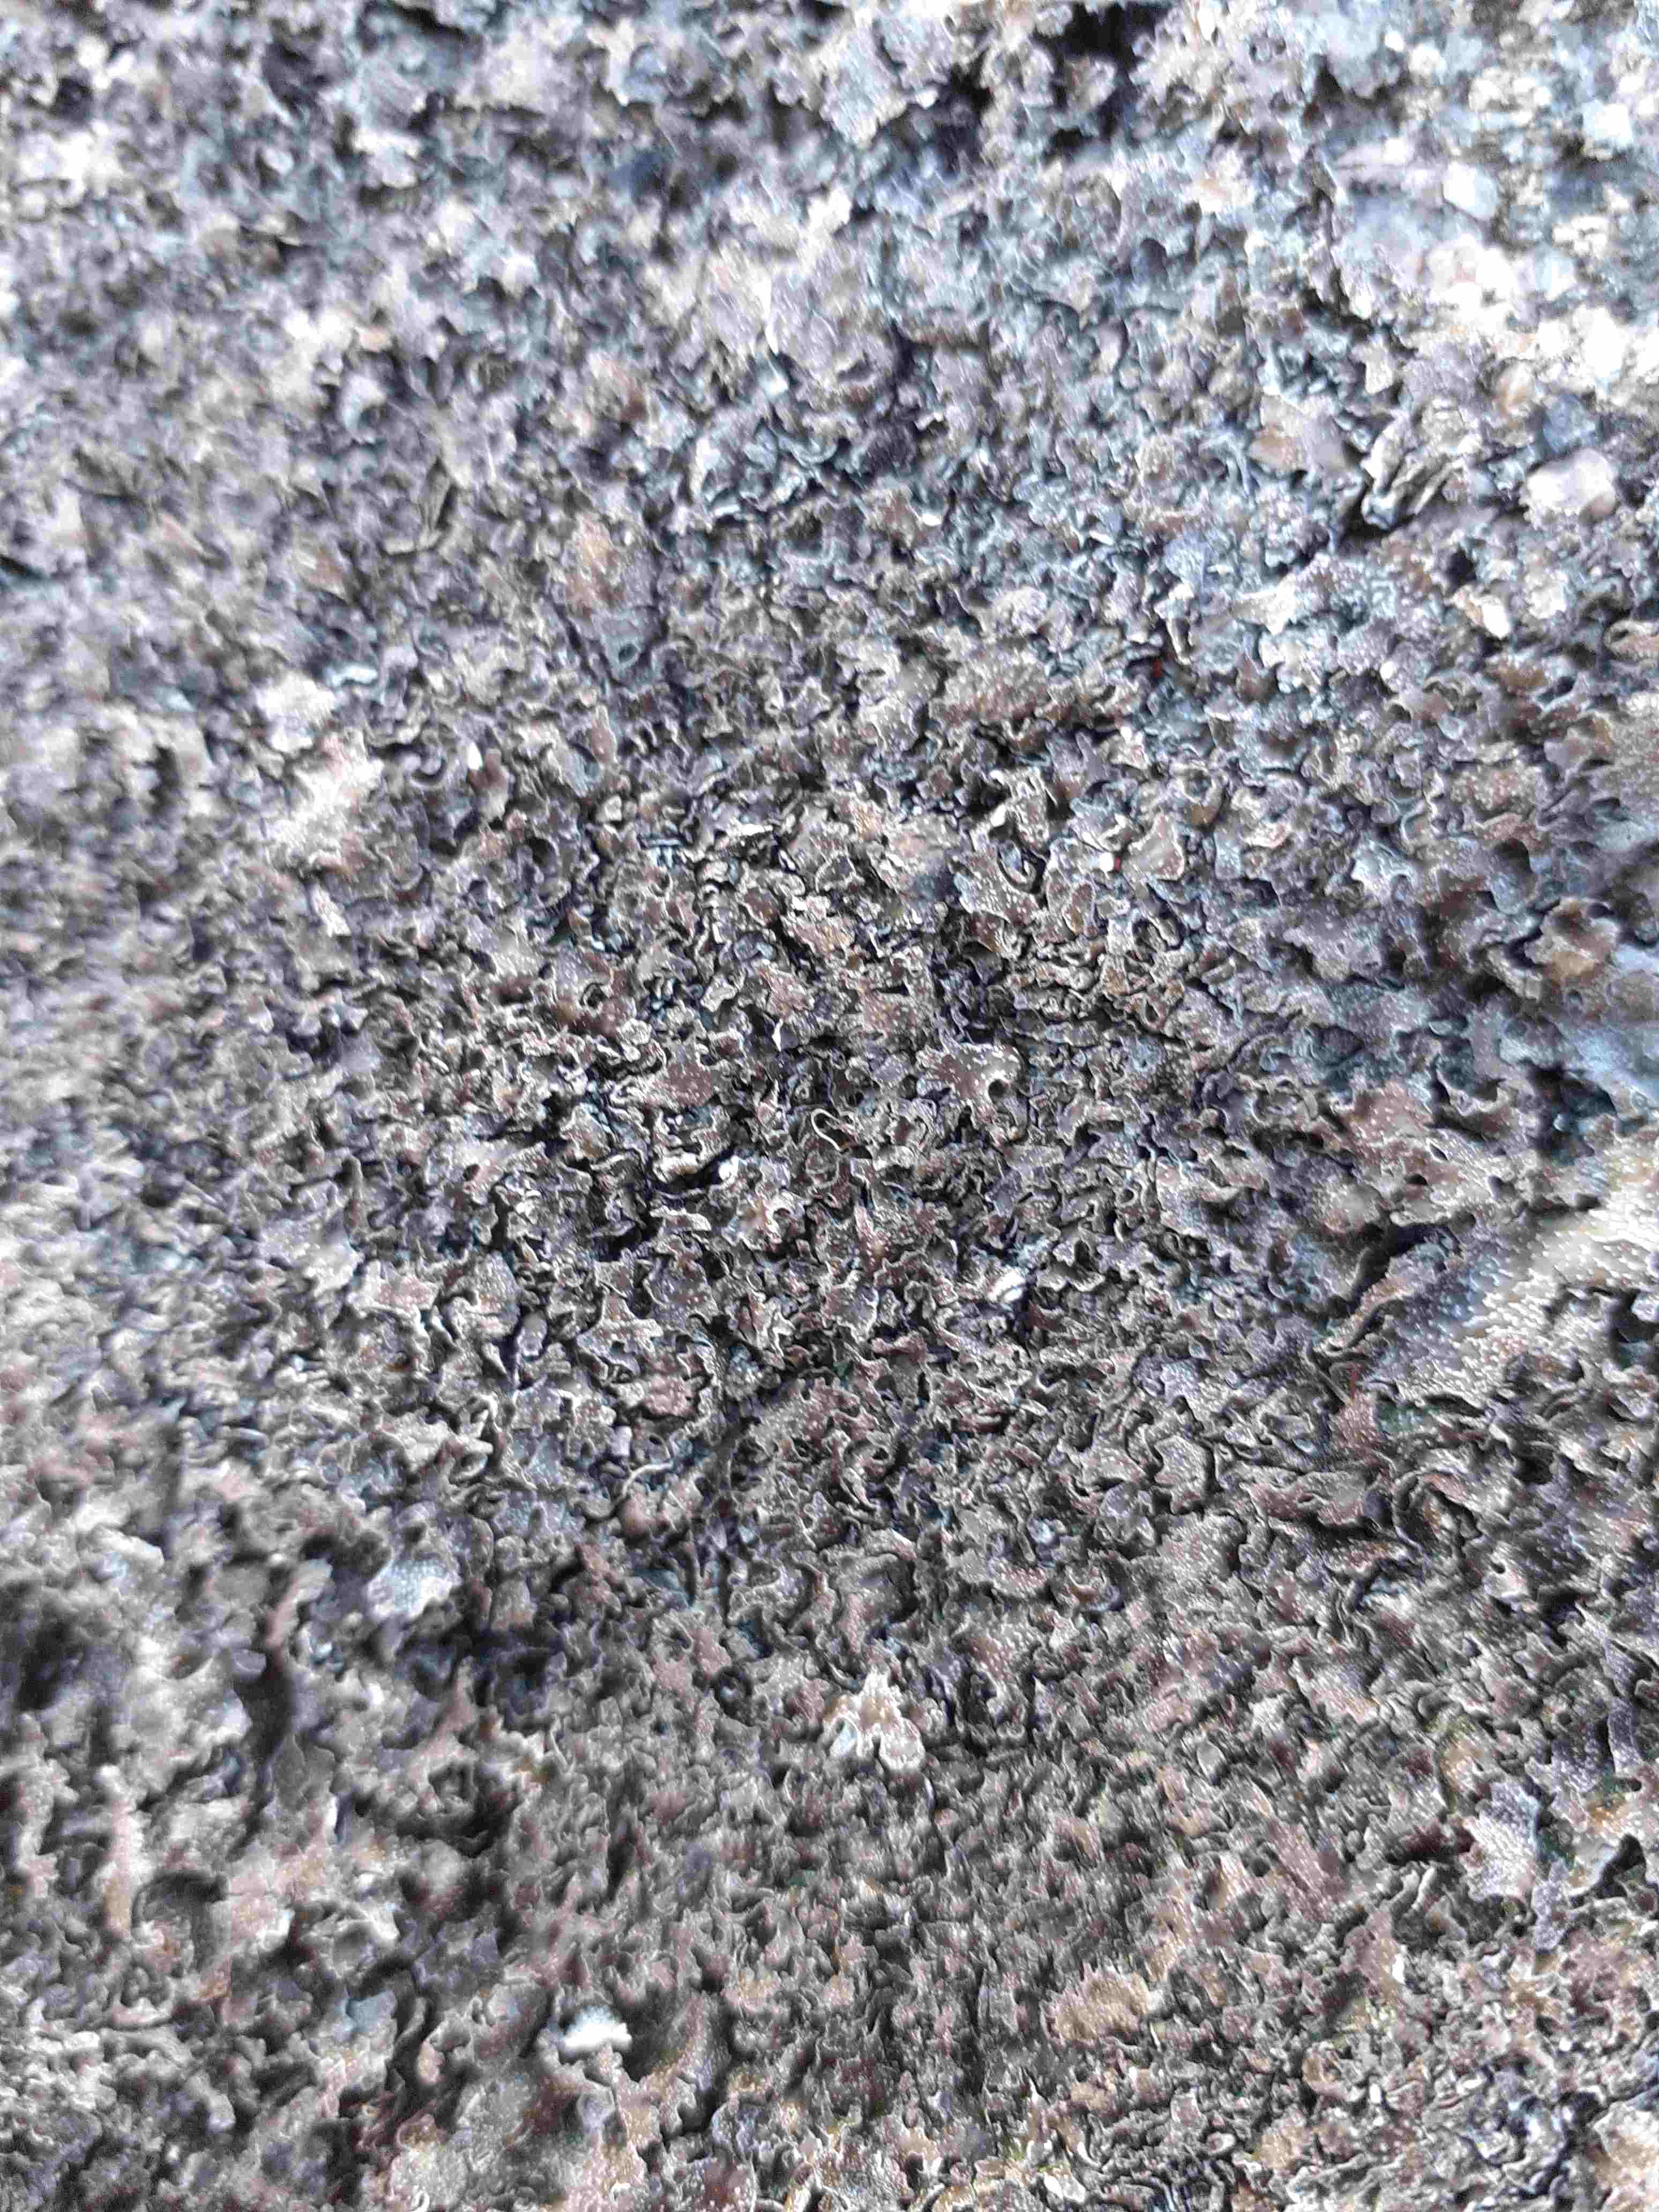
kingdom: Fungi
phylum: Ascomycota
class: Lecanoromycetes
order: Lecanorales
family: Parmeliaceae
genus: Parmelia
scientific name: Parmelia omphalodes
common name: bronze-skållav
